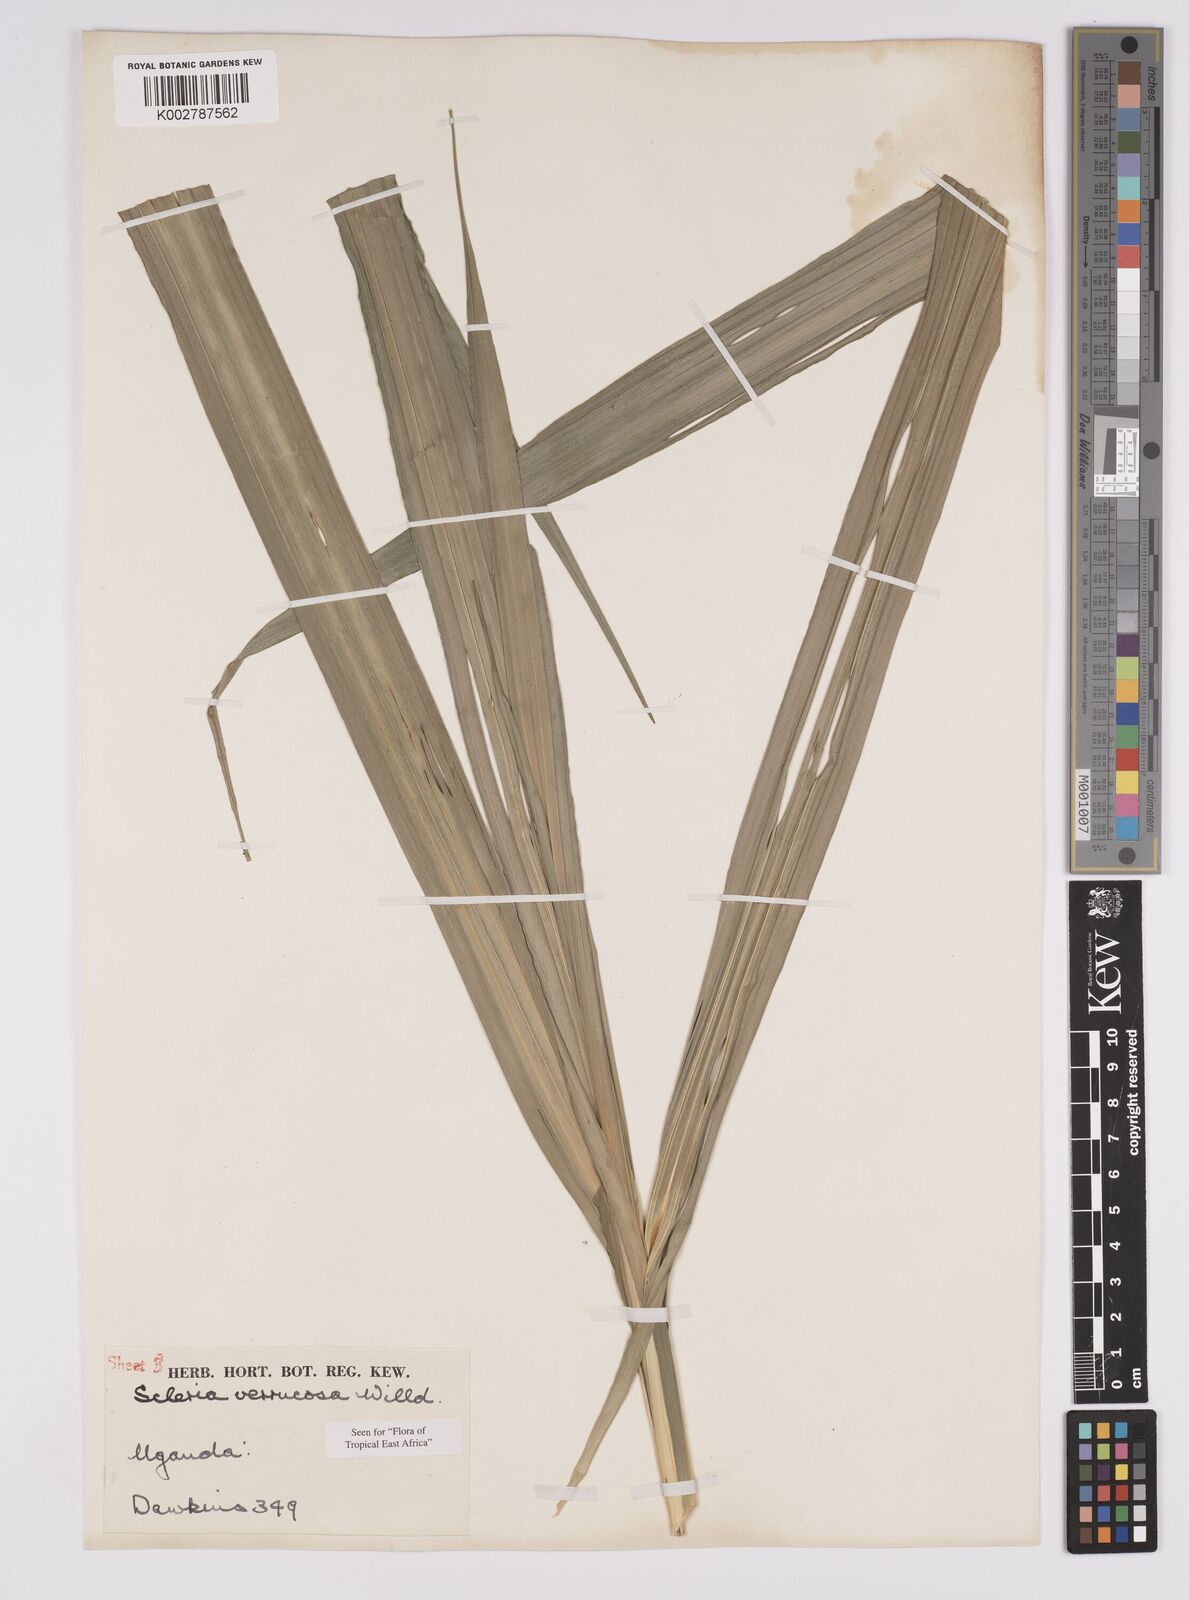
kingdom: Plantae
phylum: Tracheophyta
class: Liliopsida
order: Poales
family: Cyperaceae
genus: Scleria
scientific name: Scleria verrucosa
